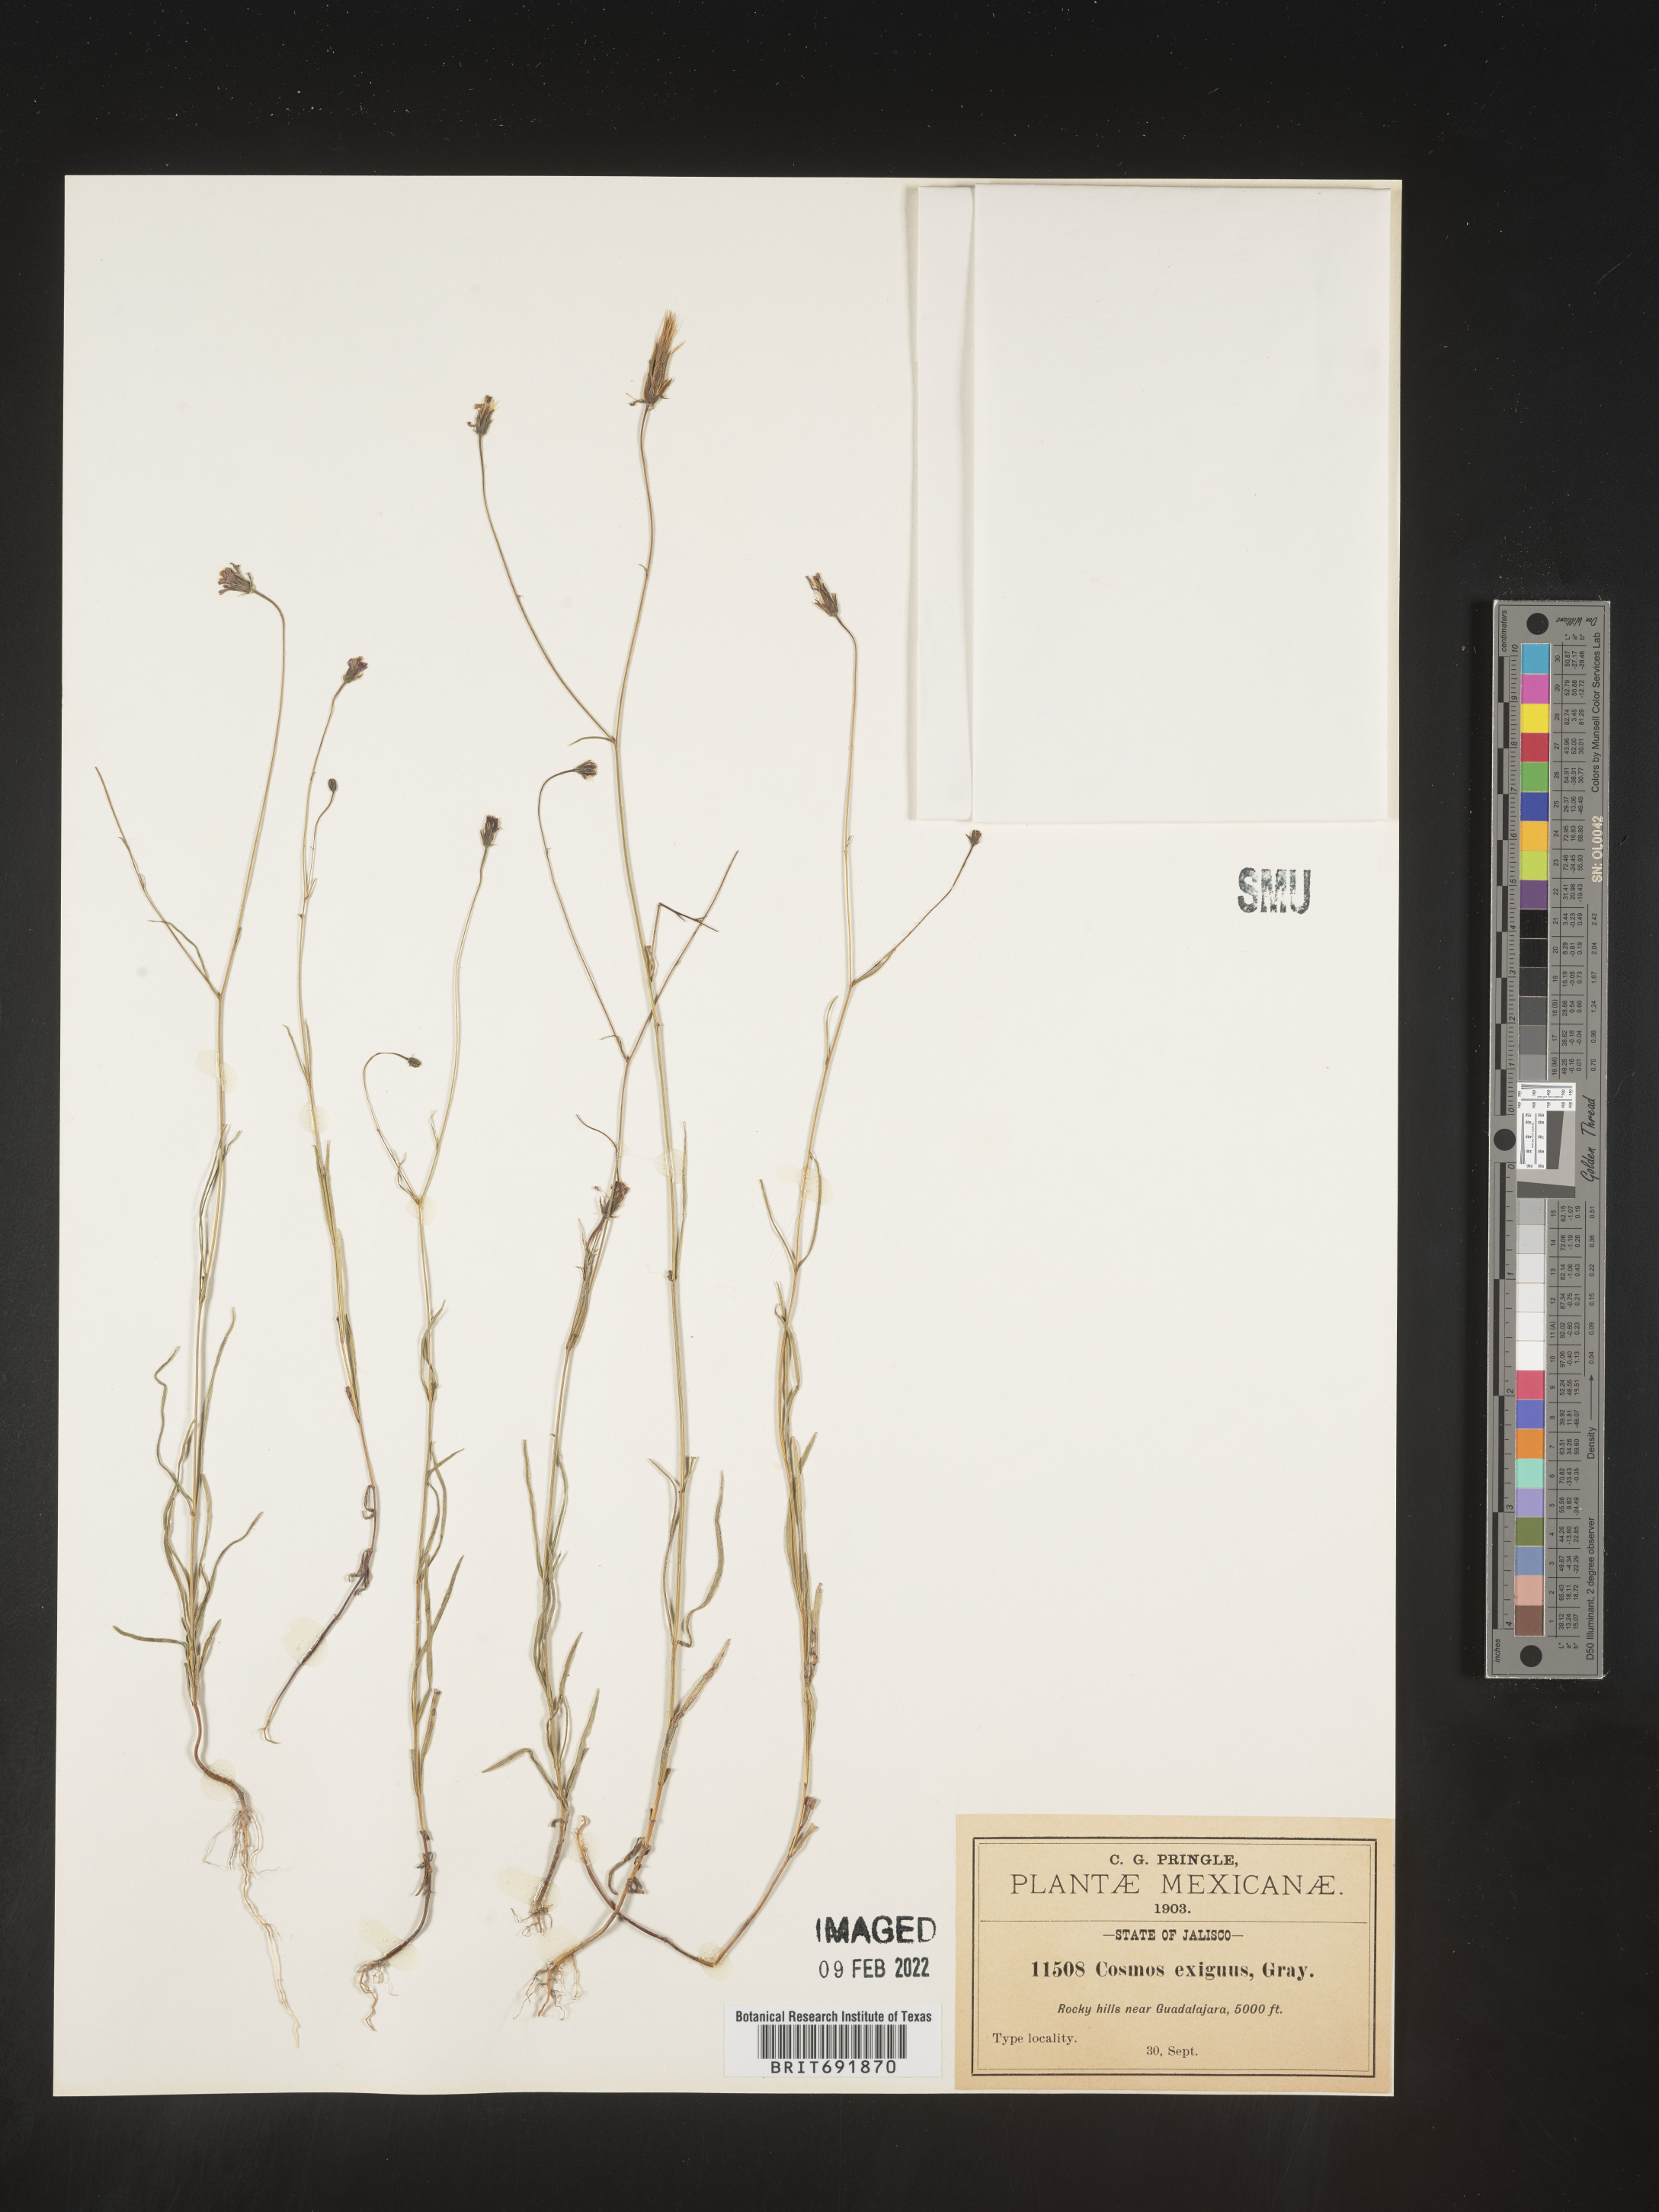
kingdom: Plantae
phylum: Tracheophyta
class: Magnoliopsida
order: Asterales
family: Asteraceae
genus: Cosmos
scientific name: Cosmos
